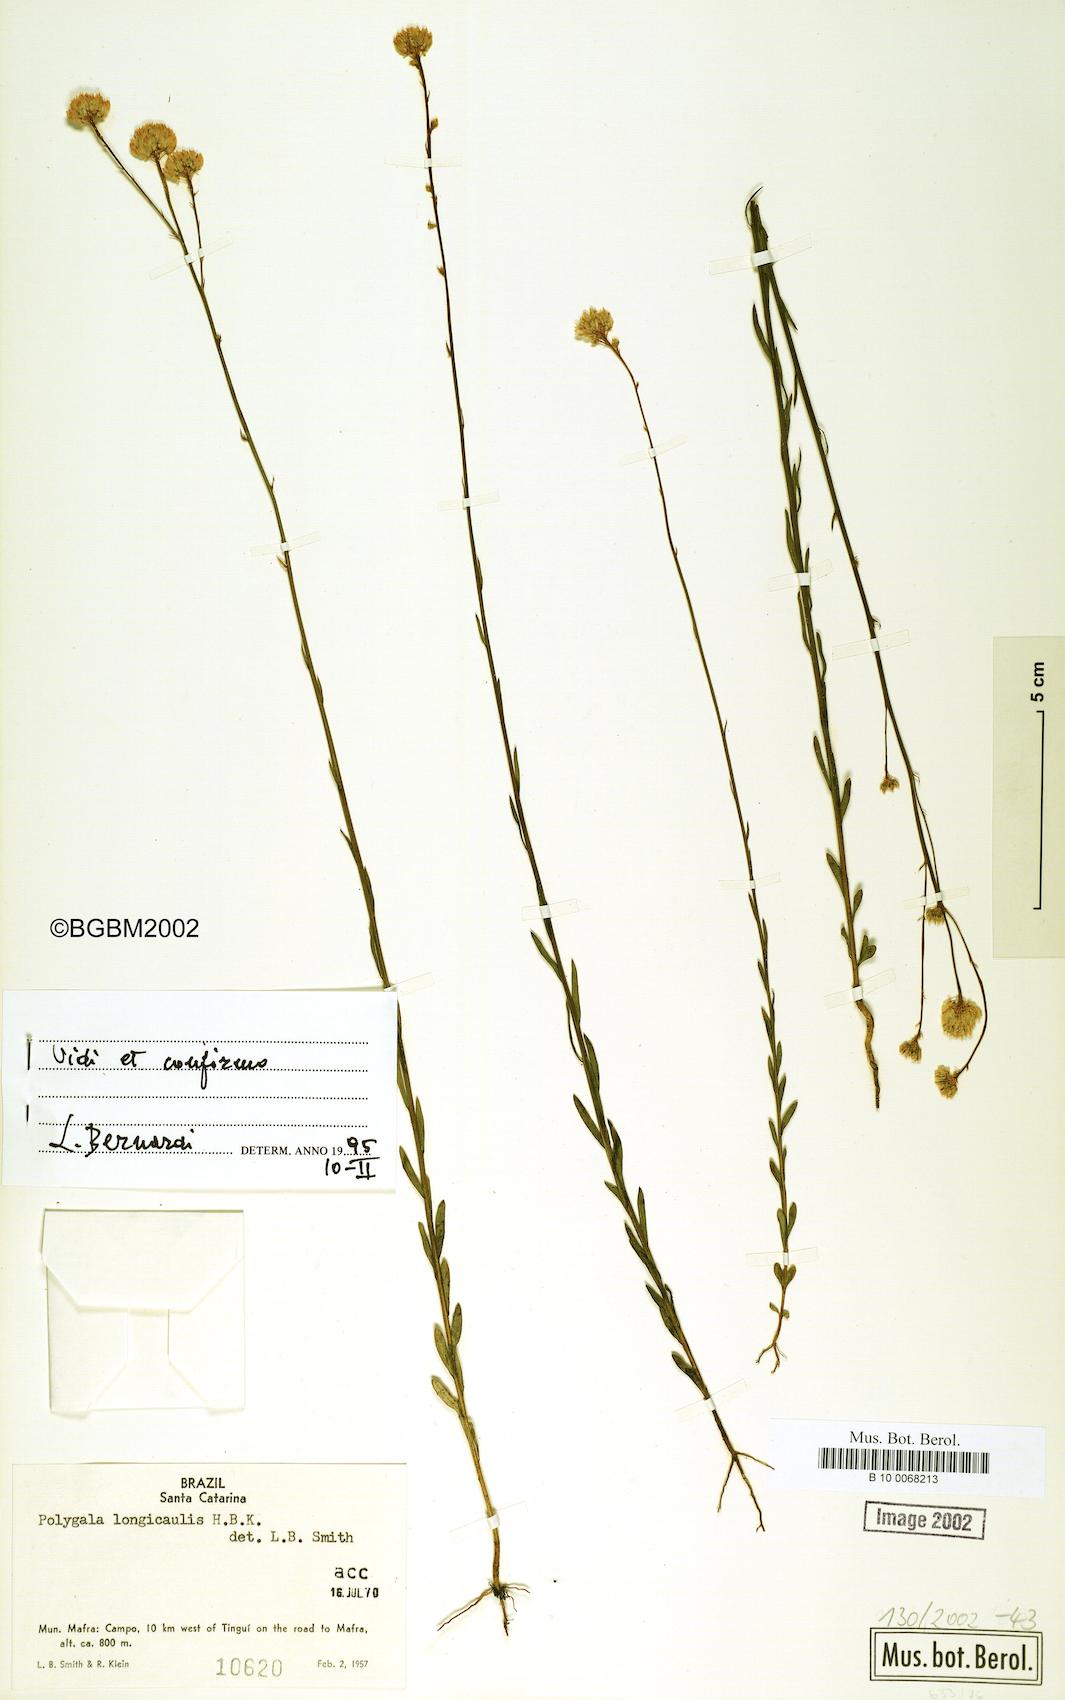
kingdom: Plantae
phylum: Tracheophyta
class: Magnoliopsida
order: Fabales
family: Polygalaceae
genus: Polygala
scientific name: Polygala longicaulis
